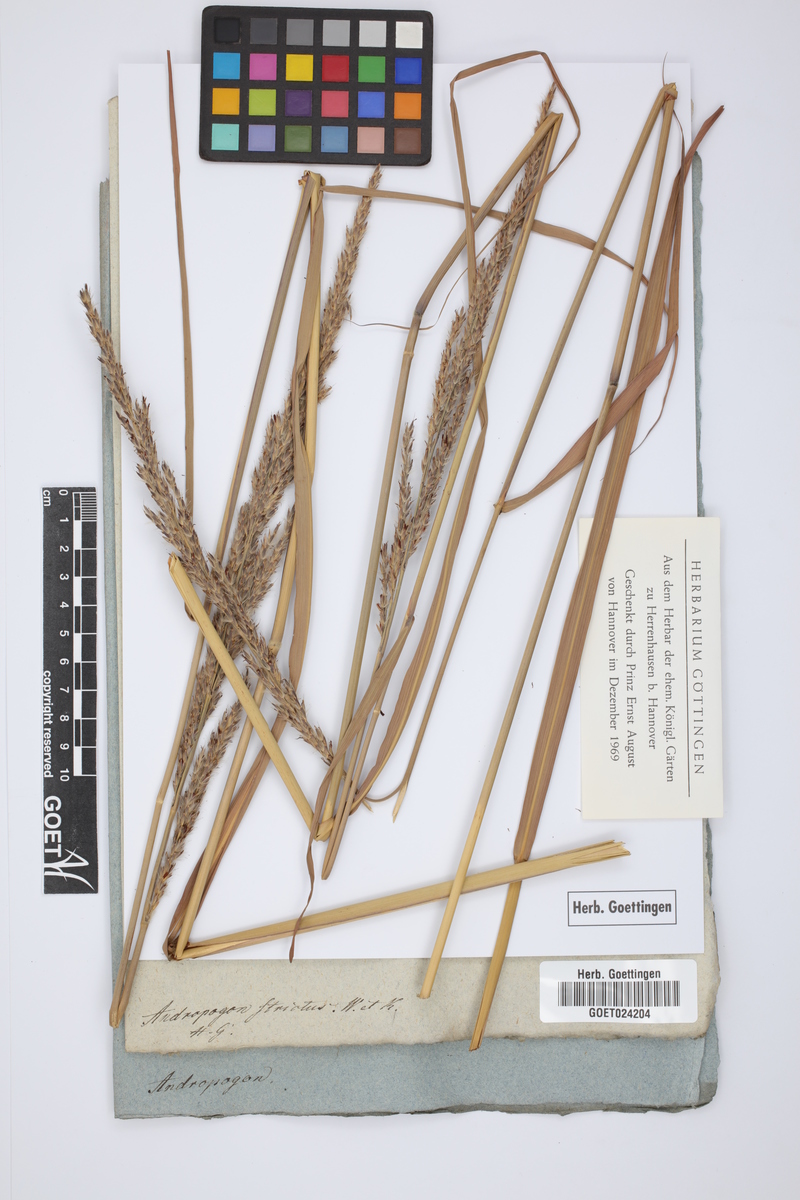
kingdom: Plantae
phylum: Tracheophyta
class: Liliopsida
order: Poales
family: Poaceae
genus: Tripidium
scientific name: Tripidium strictum
